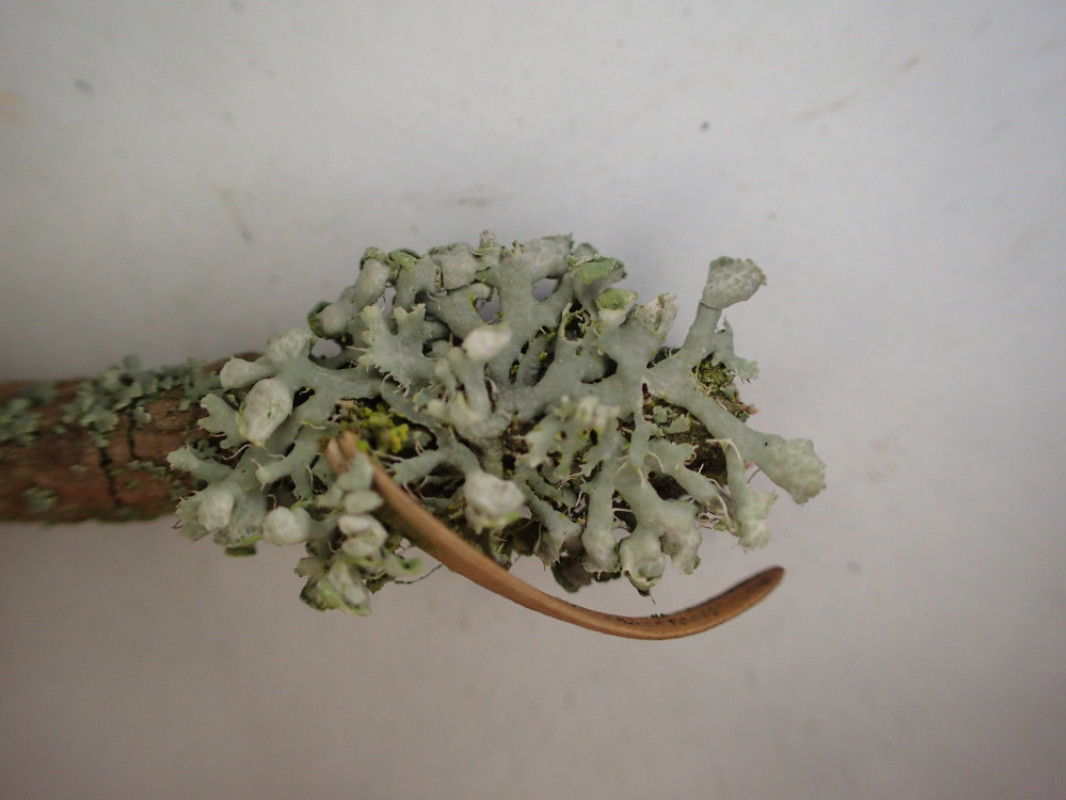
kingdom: Fungi
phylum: Ascomycota
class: Lecanoromycetes
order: Caliciales
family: Physciaceae
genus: Physcia
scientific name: Physcia adscendens
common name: hætte-rosetlav
